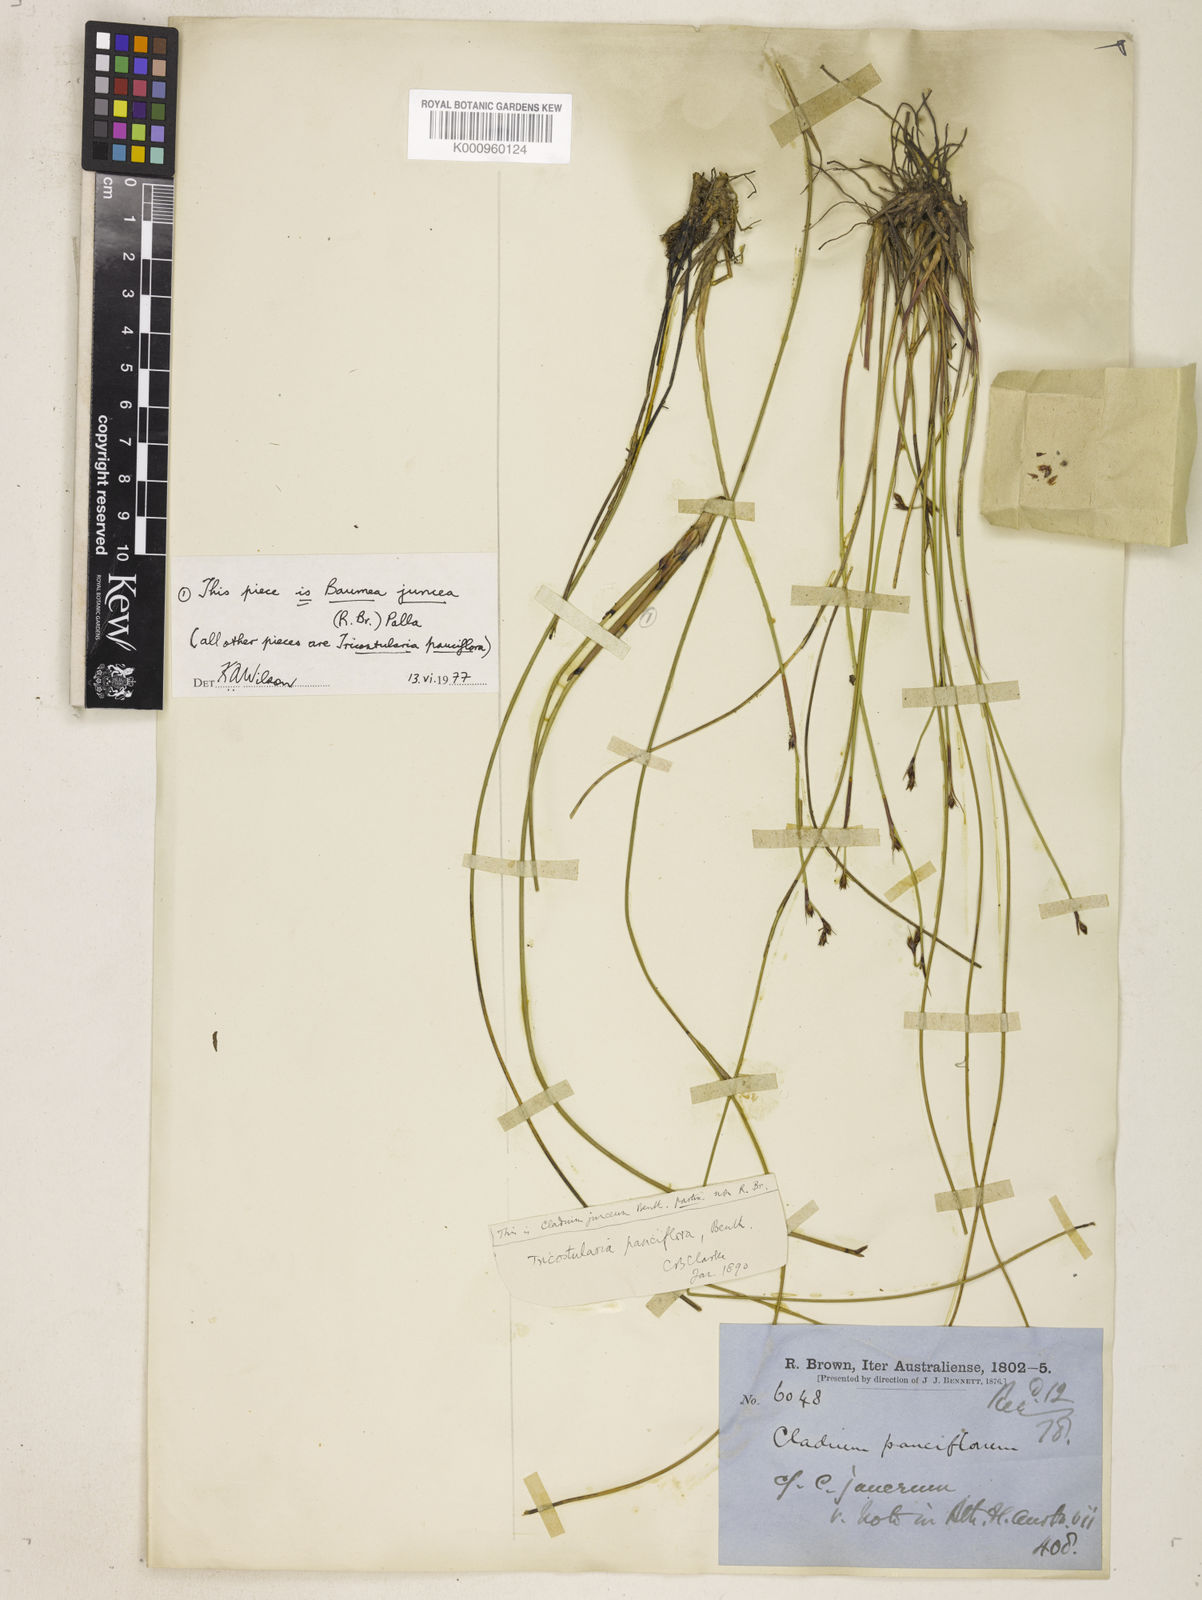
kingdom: Plantae
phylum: Tracheophyta
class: Liliopsida
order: Poales
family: Cyperaceae
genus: Tricostularia
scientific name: Tricostularia pauciflora
